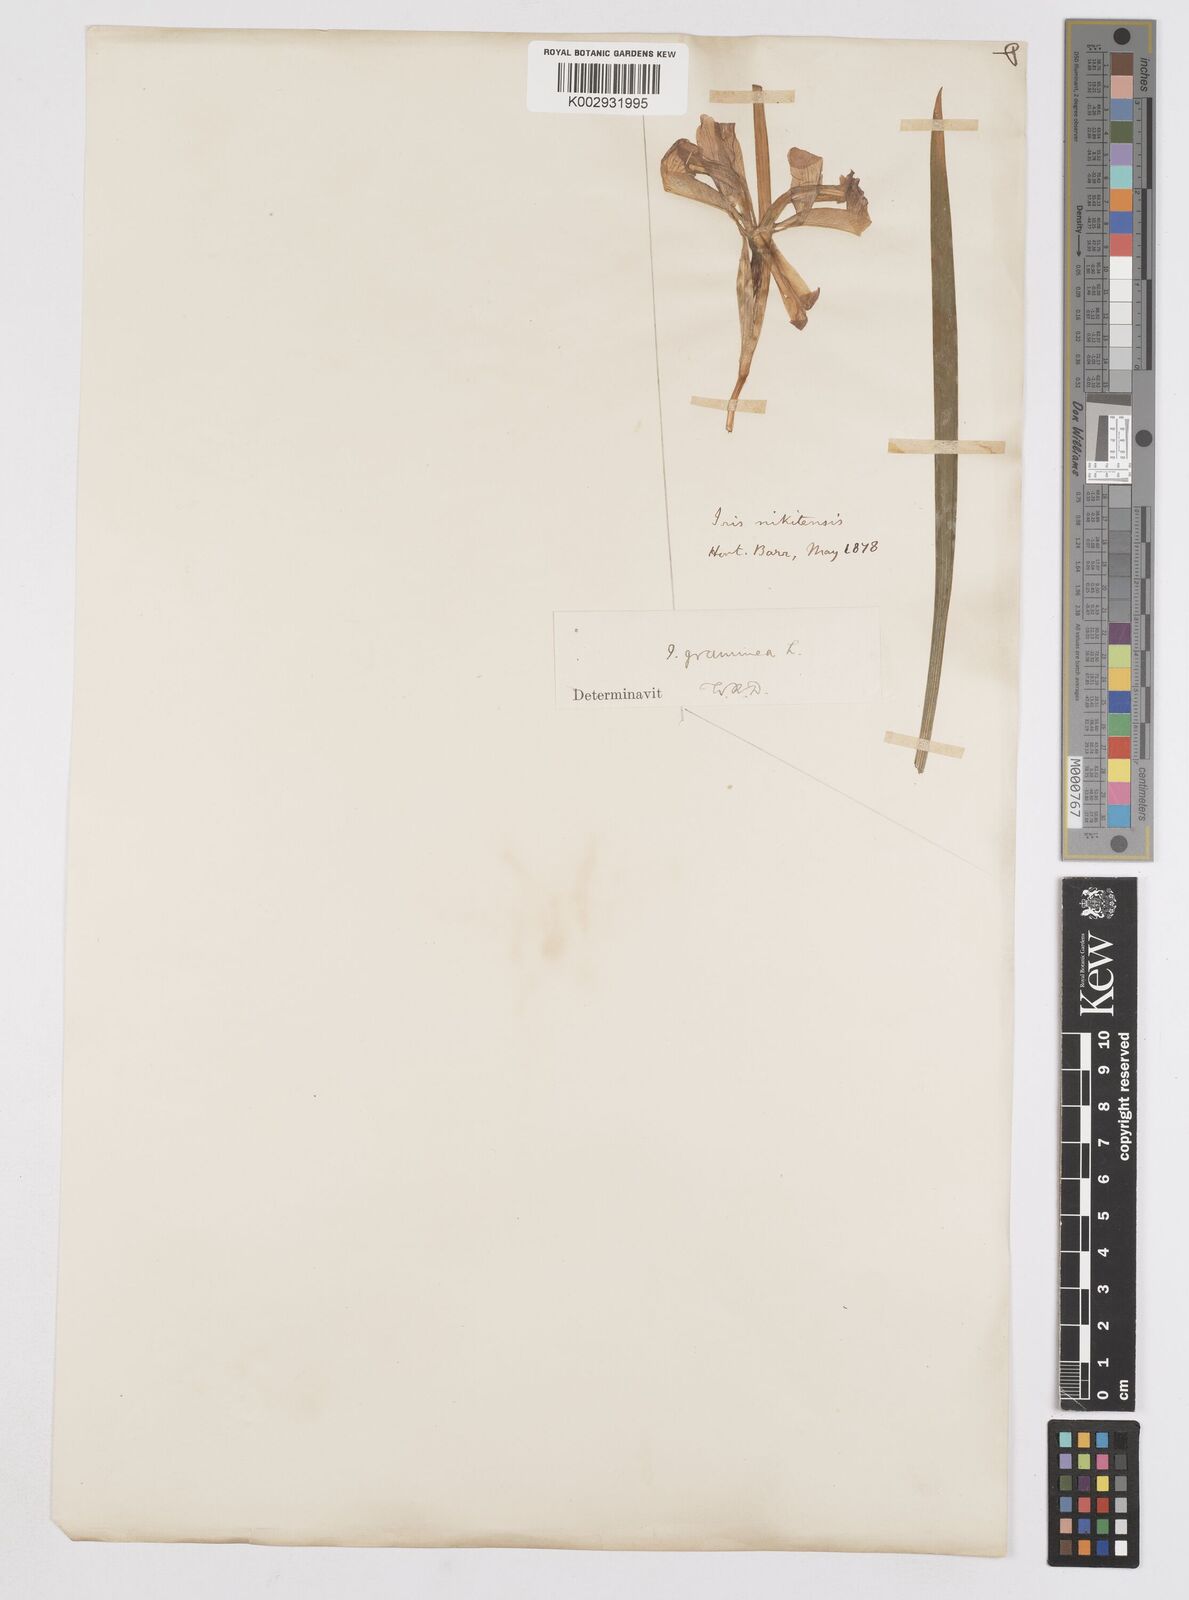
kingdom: Plantae
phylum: Tracheophyta
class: Liliopsida
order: Asparagales
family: Iridaceae
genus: Iris
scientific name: Iris graminea
